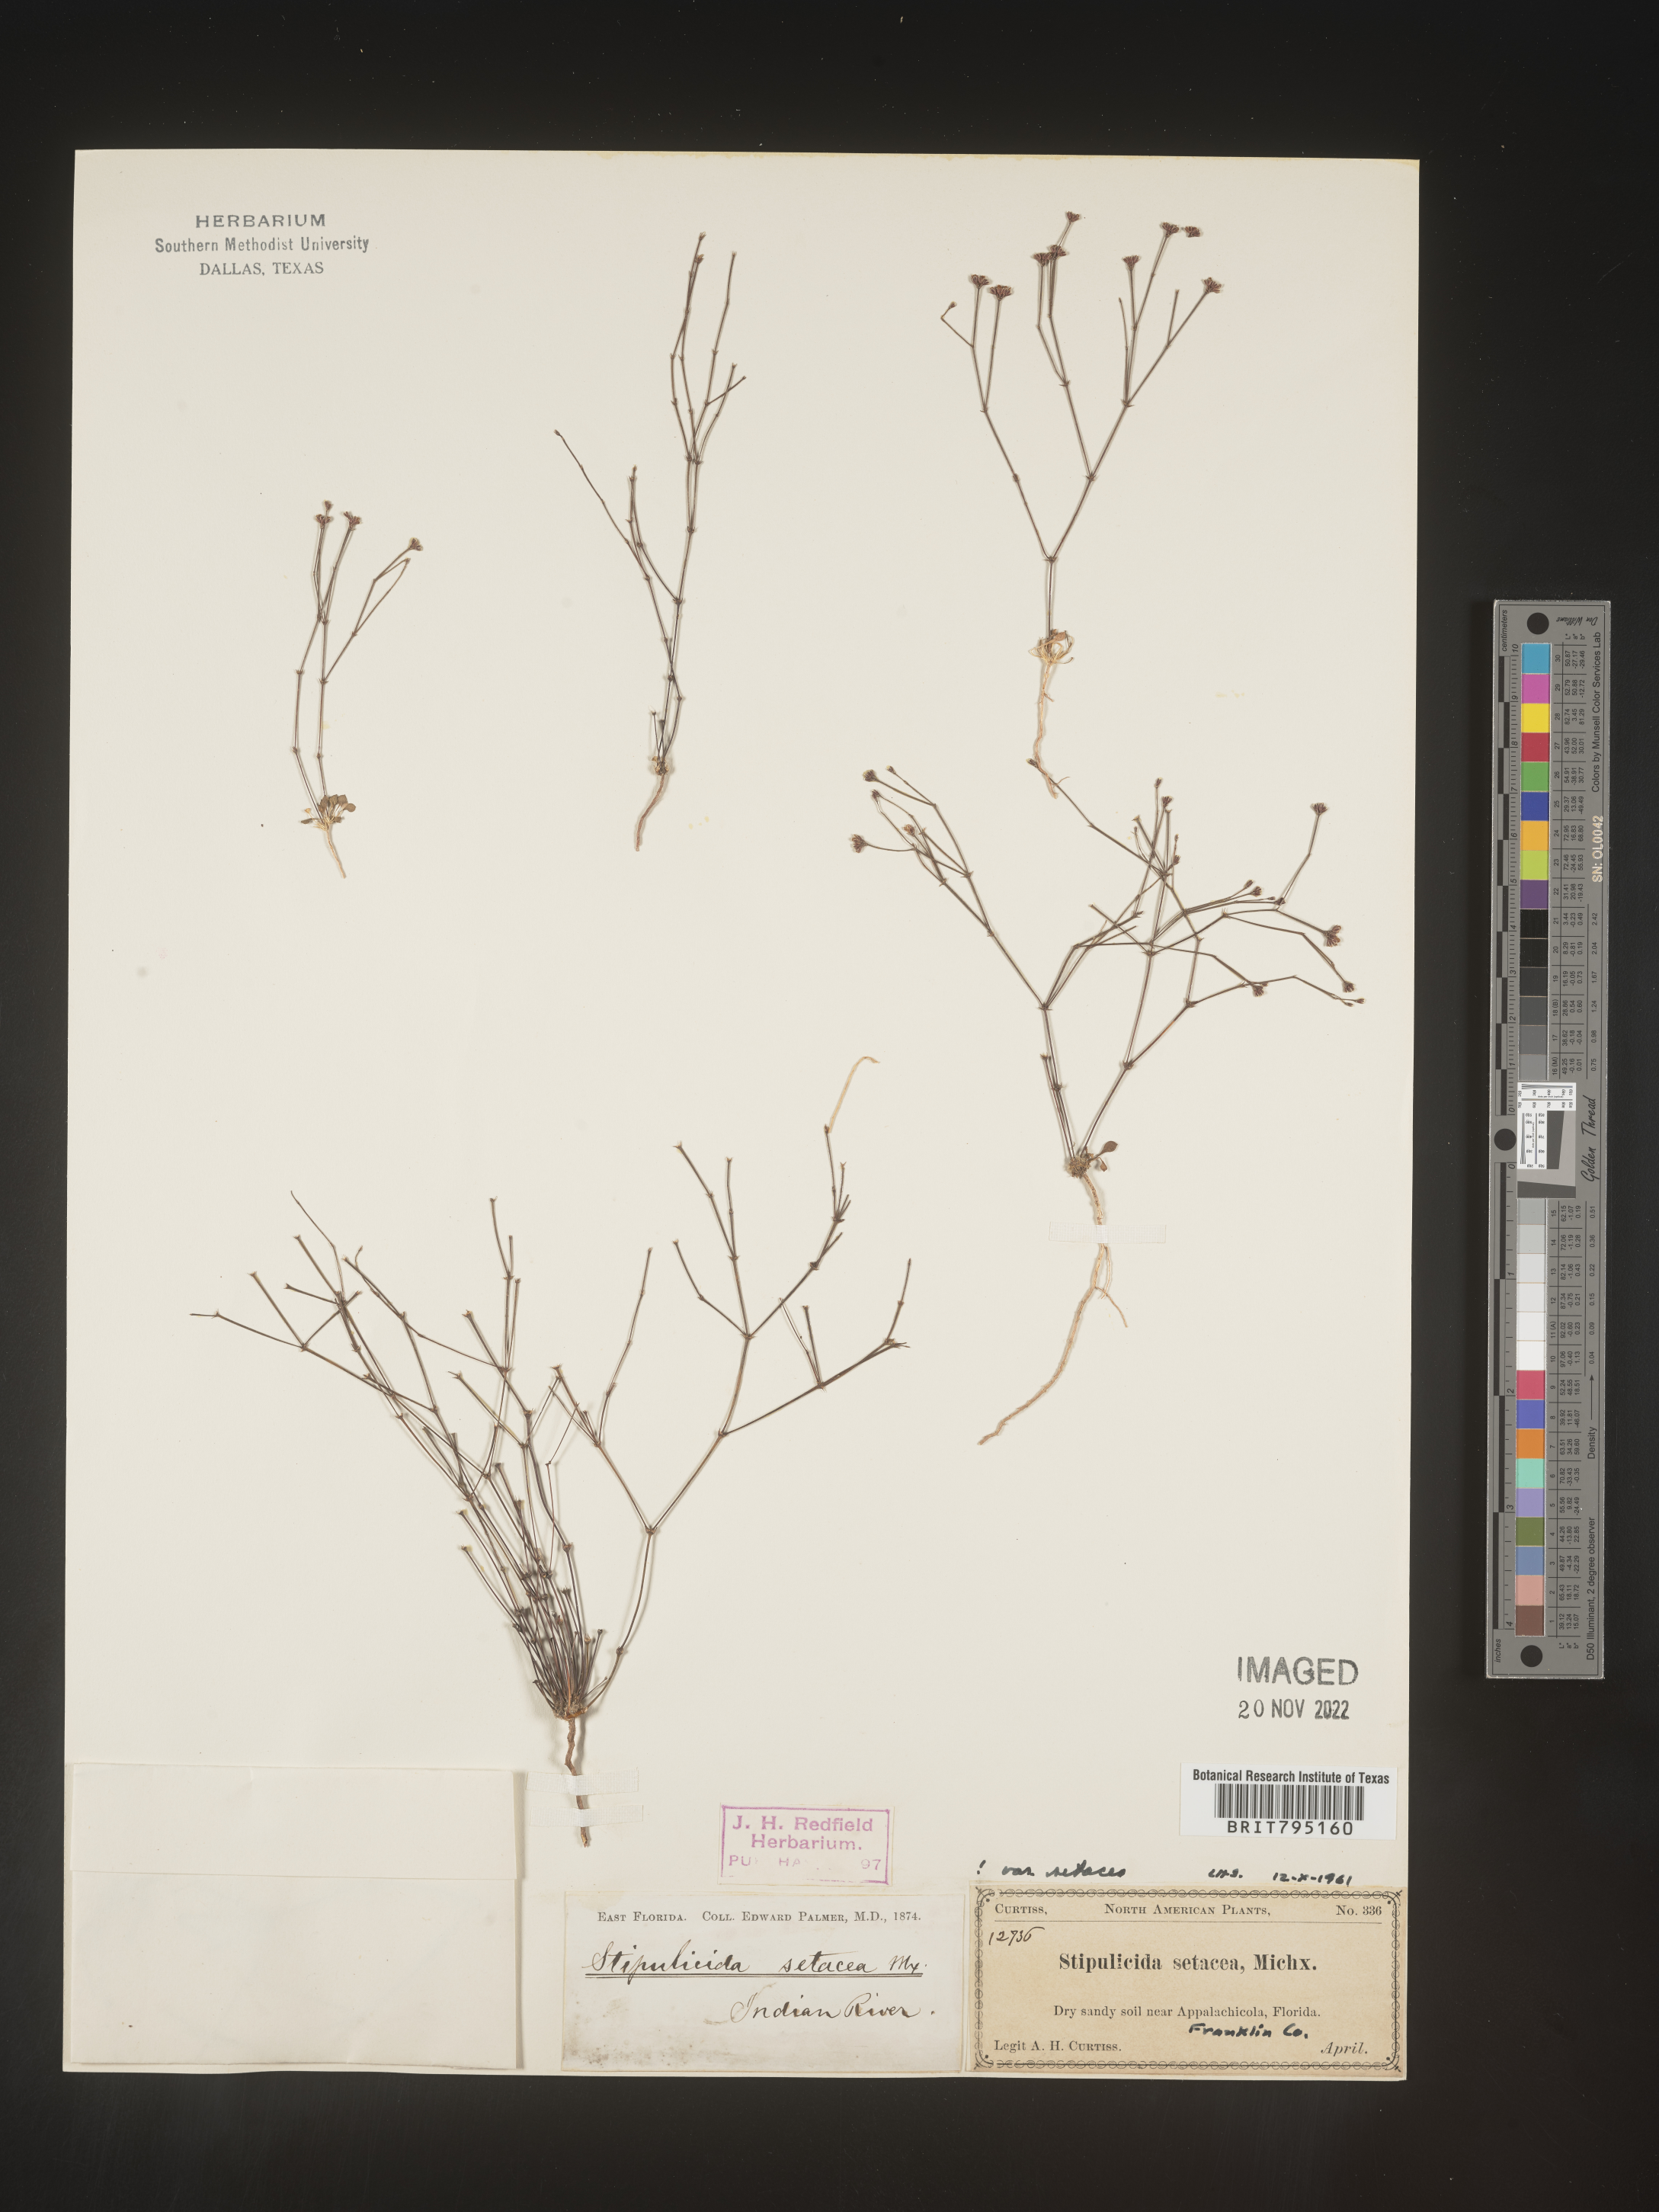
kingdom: Plantae
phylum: Tracheophyta
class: Magnoliopsida
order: Caryophyllales
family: Caryophyllaceae
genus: Stipulicida
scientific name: Stipulicida
